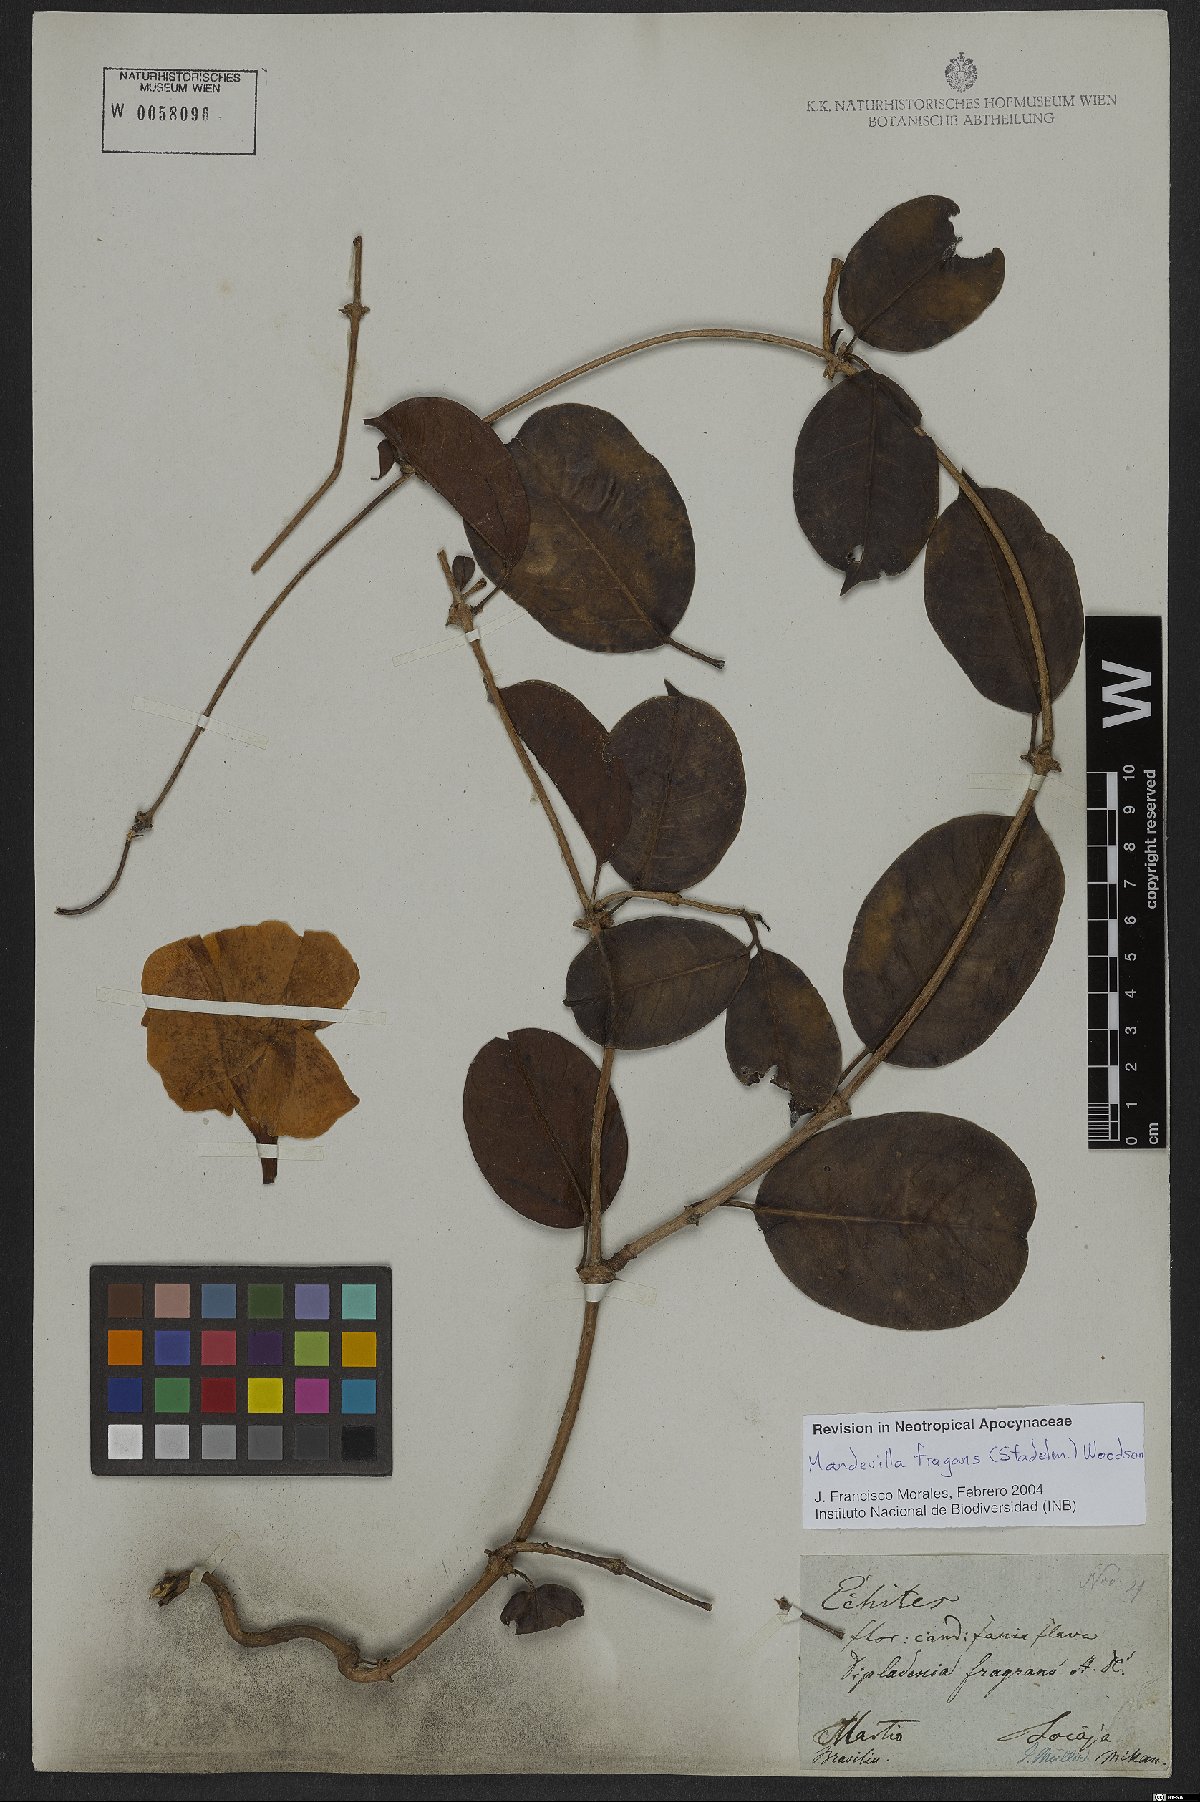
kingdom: Plantae
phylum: Tracheophyta
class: Magnoliopsida
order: Gentianales
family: Apocynaceae
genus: Mandevilla
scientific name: Mandevilla fragrans
